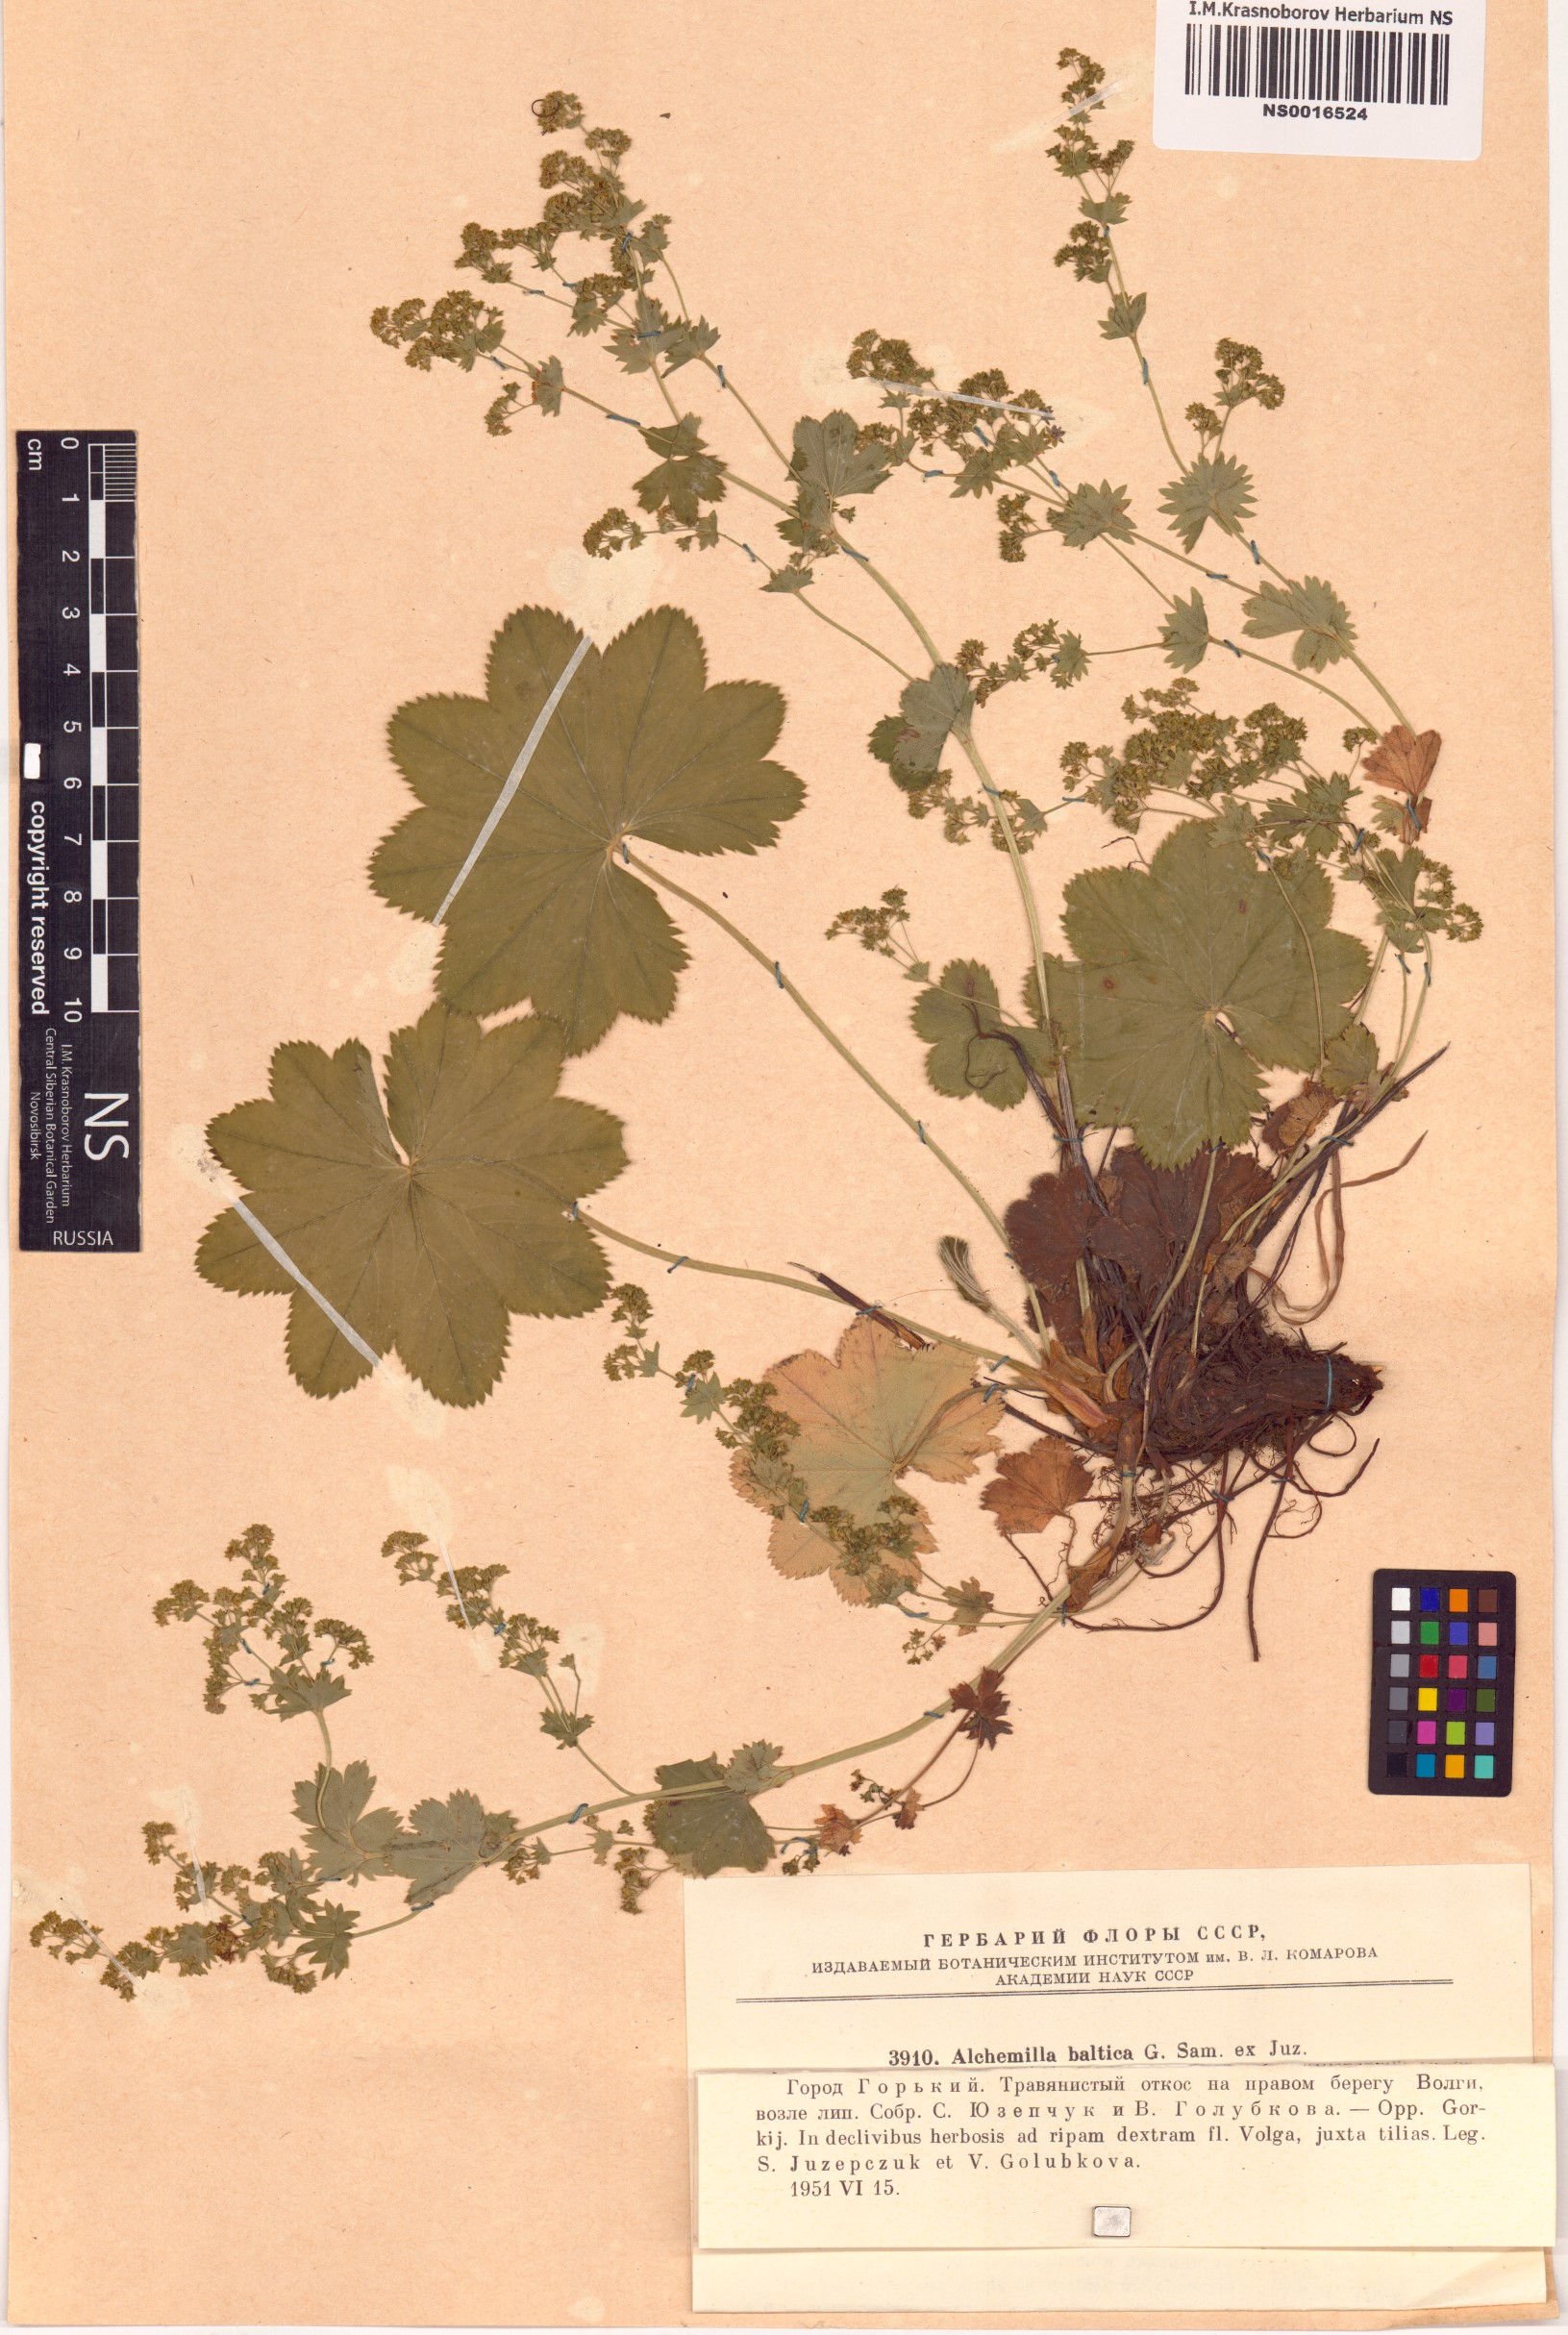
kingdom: Plantae
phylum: Tracheophyta
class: Magnoliopsida
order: Rosales
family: Rosaceae
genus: Alchemilla
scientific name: Alchemilla baltica
